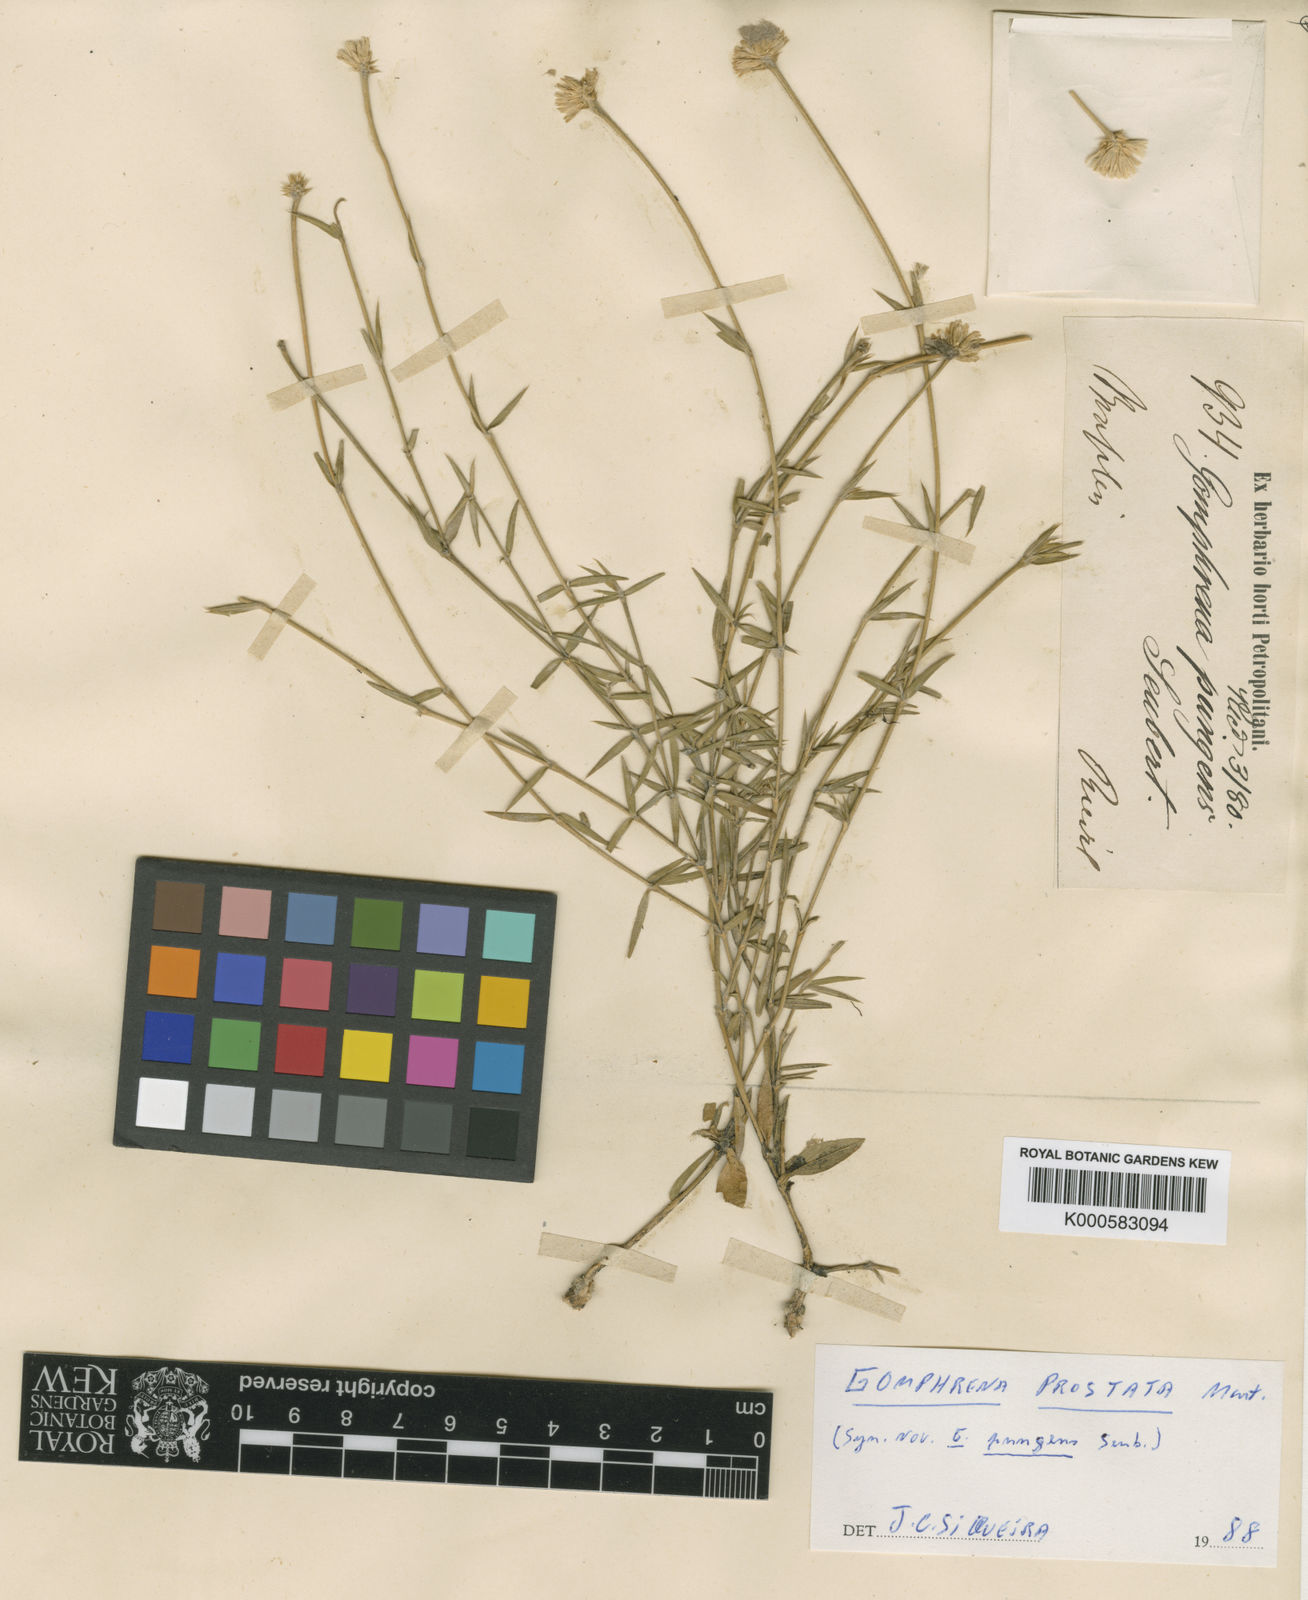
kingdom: Plantae
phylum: Tracheophyta
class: Magnoliopsida
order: Caryophyllales
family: Amaranthaceae
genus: Gomphrena
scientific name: Gomphrena
